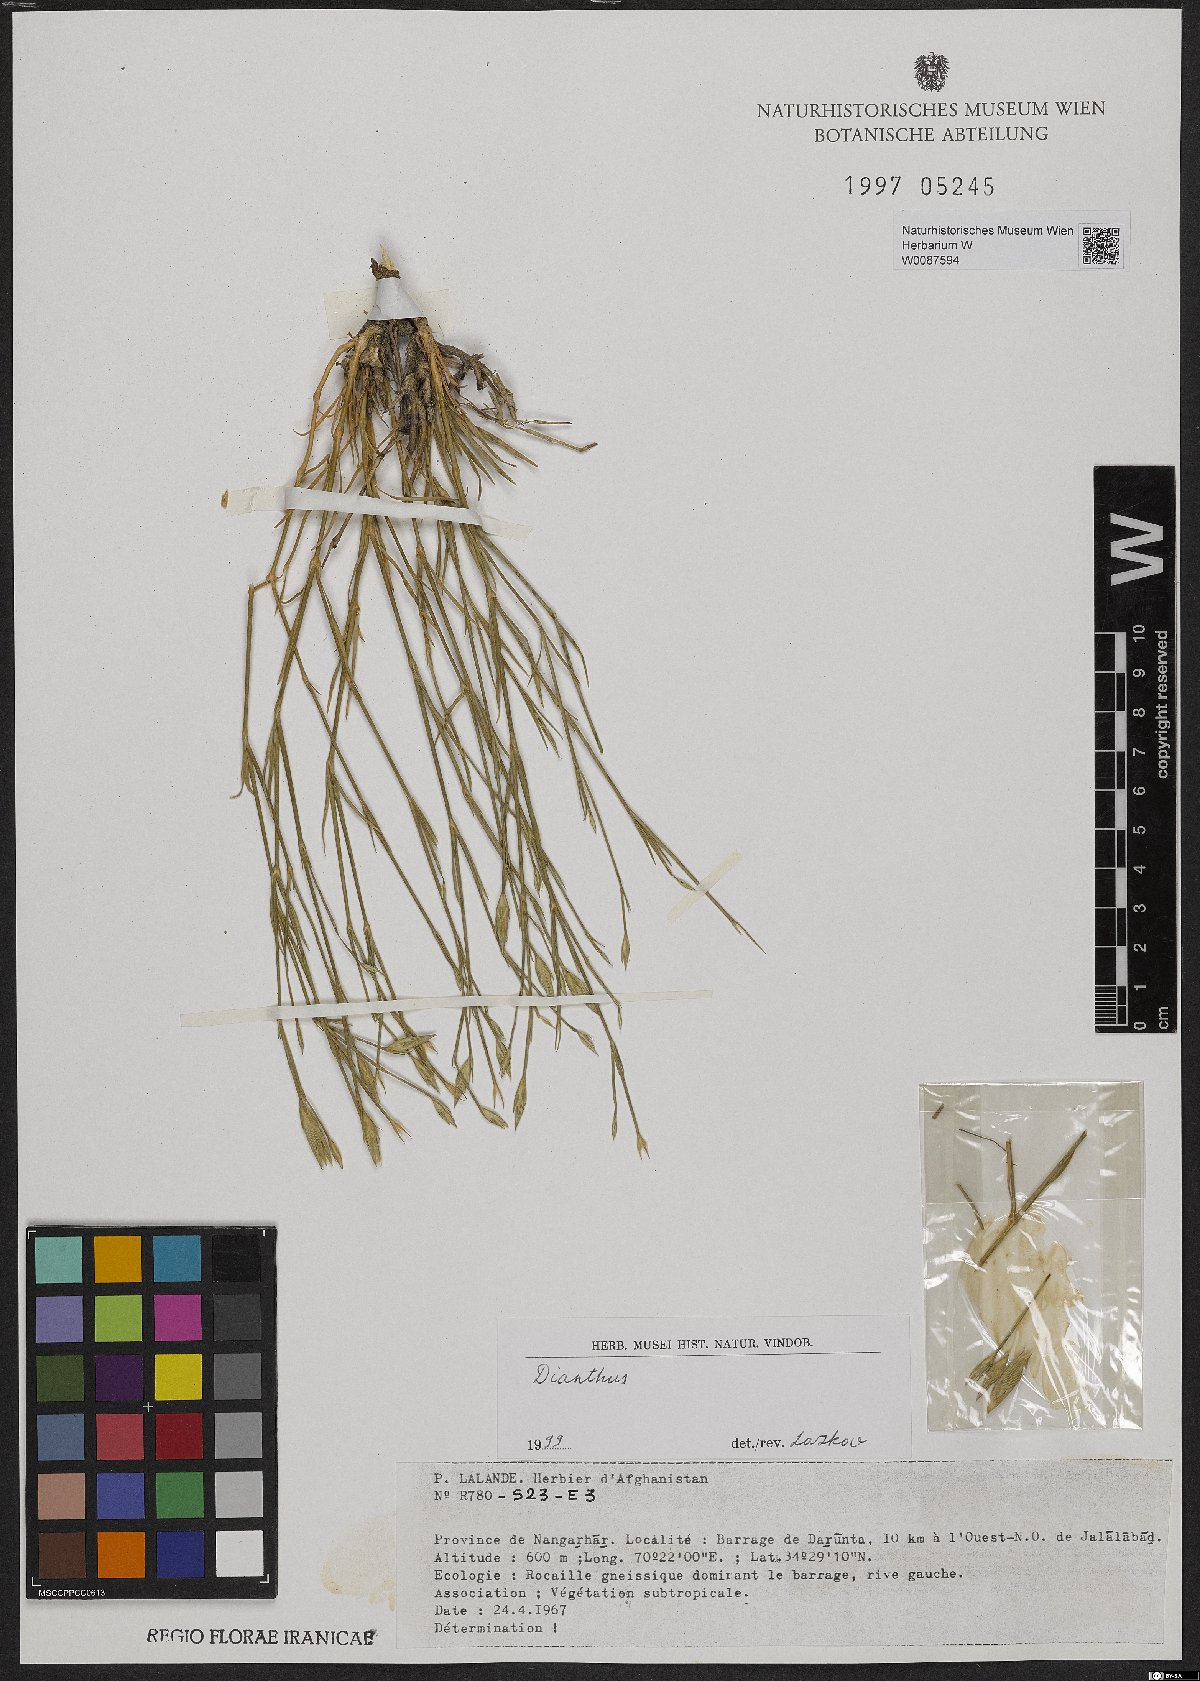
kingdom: Plantae
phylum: Tracheophyta
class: Magnoliopsida
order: Caryophyllales
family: Caryophyllaceae
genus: Dianthus
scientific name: Dianthus
